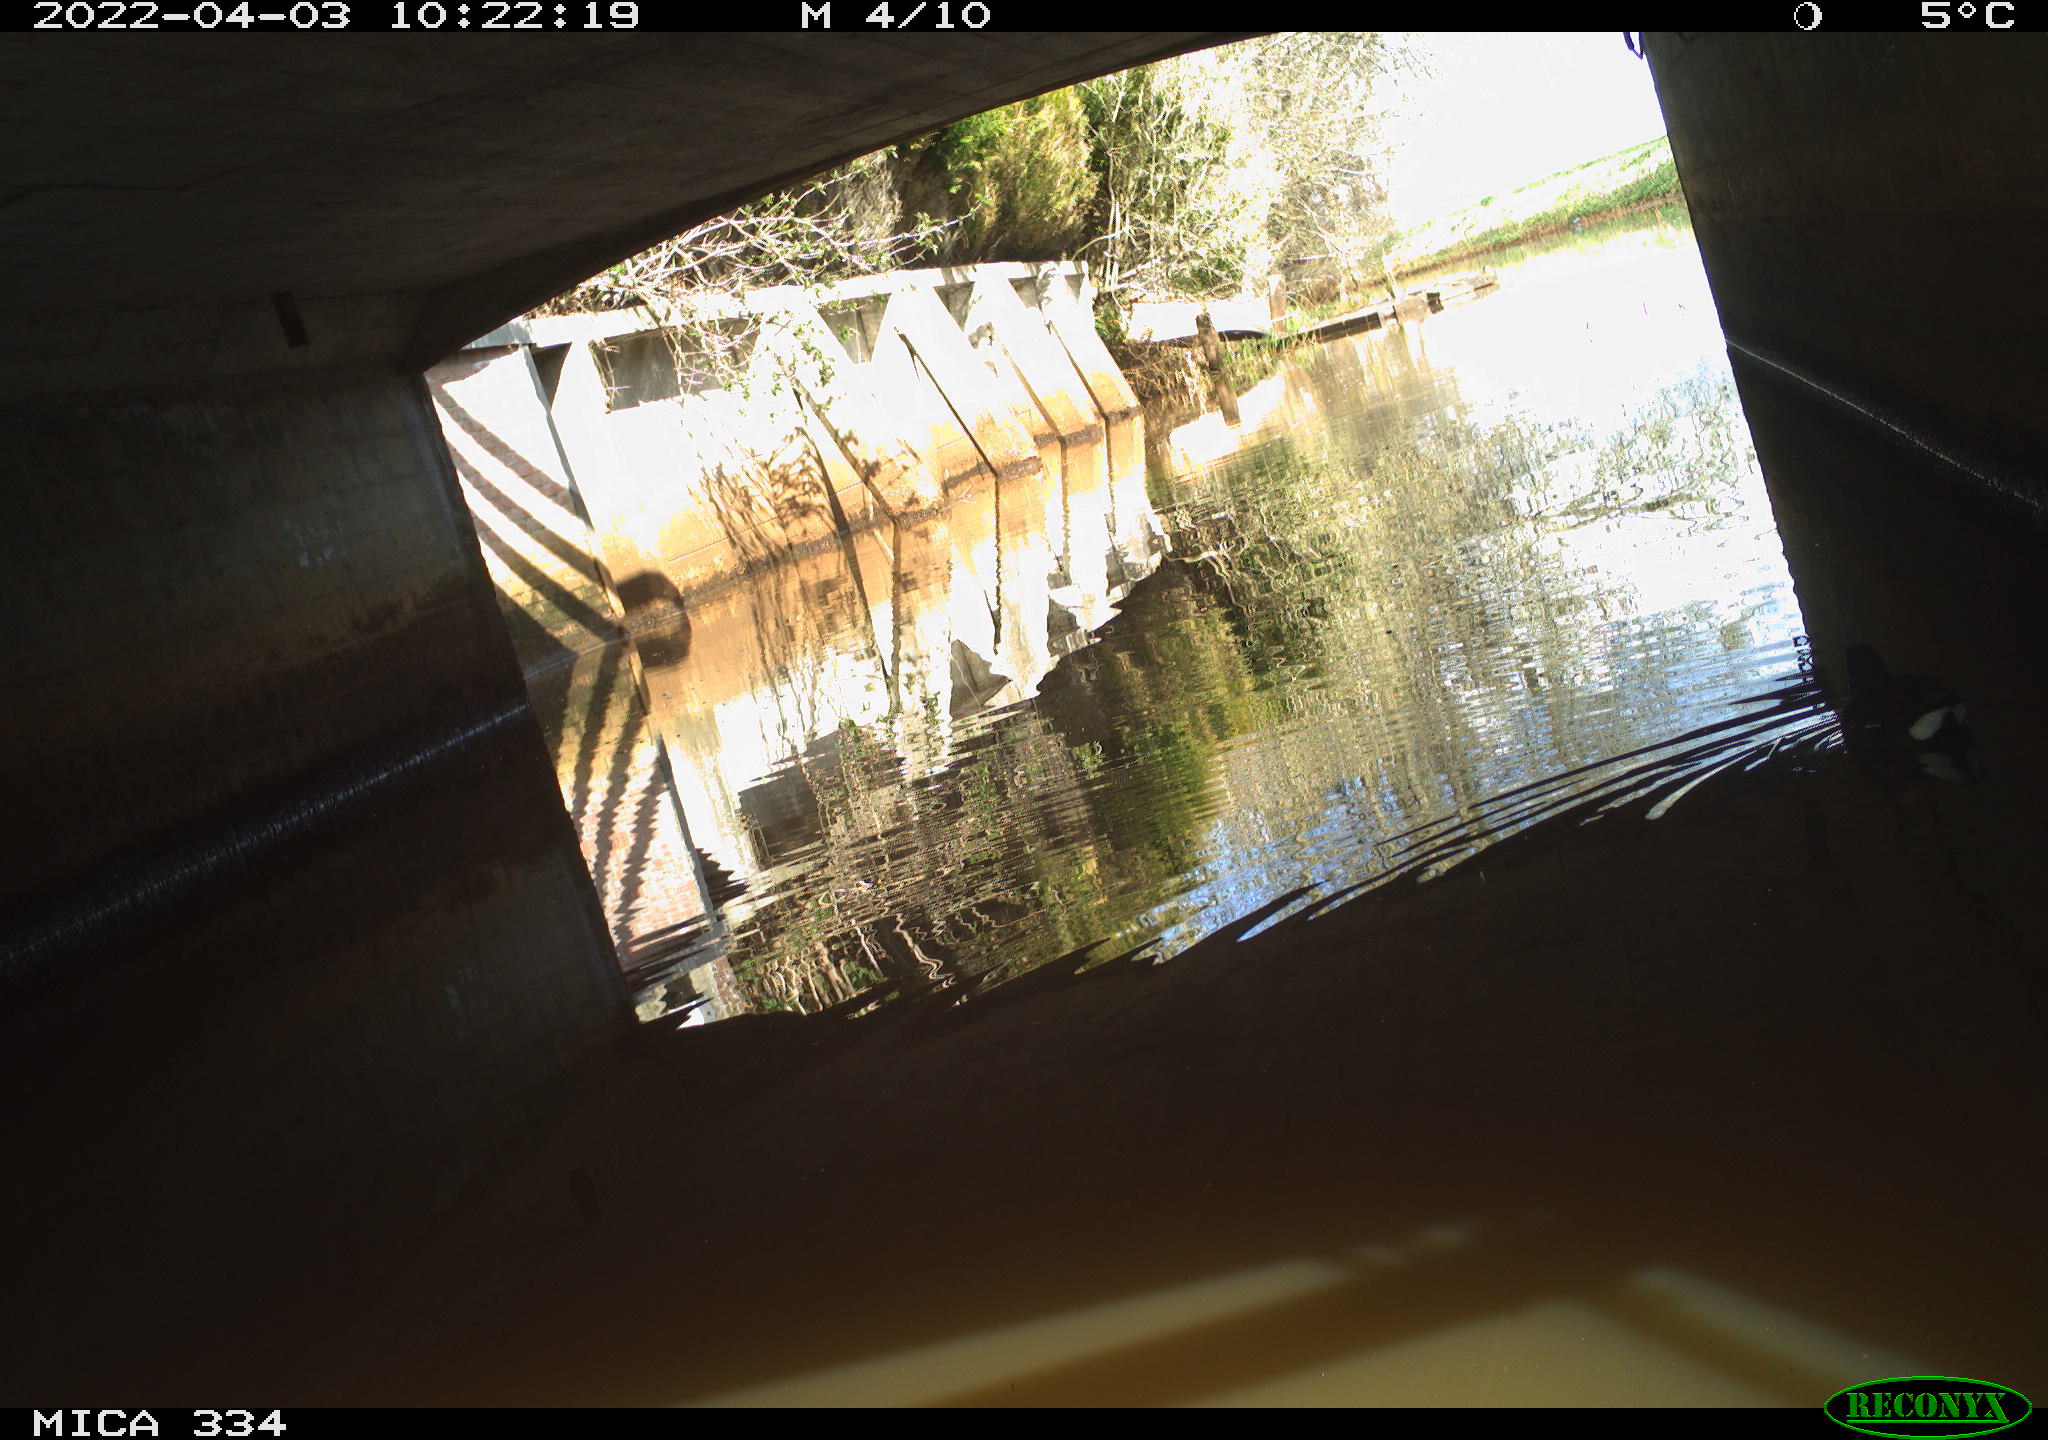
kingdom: Animalia
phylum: Chordata
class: Aves
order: Gruiformes
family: Rallidae
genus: Gallinula
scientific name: Gallinula chloropus
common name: Common moorhen
